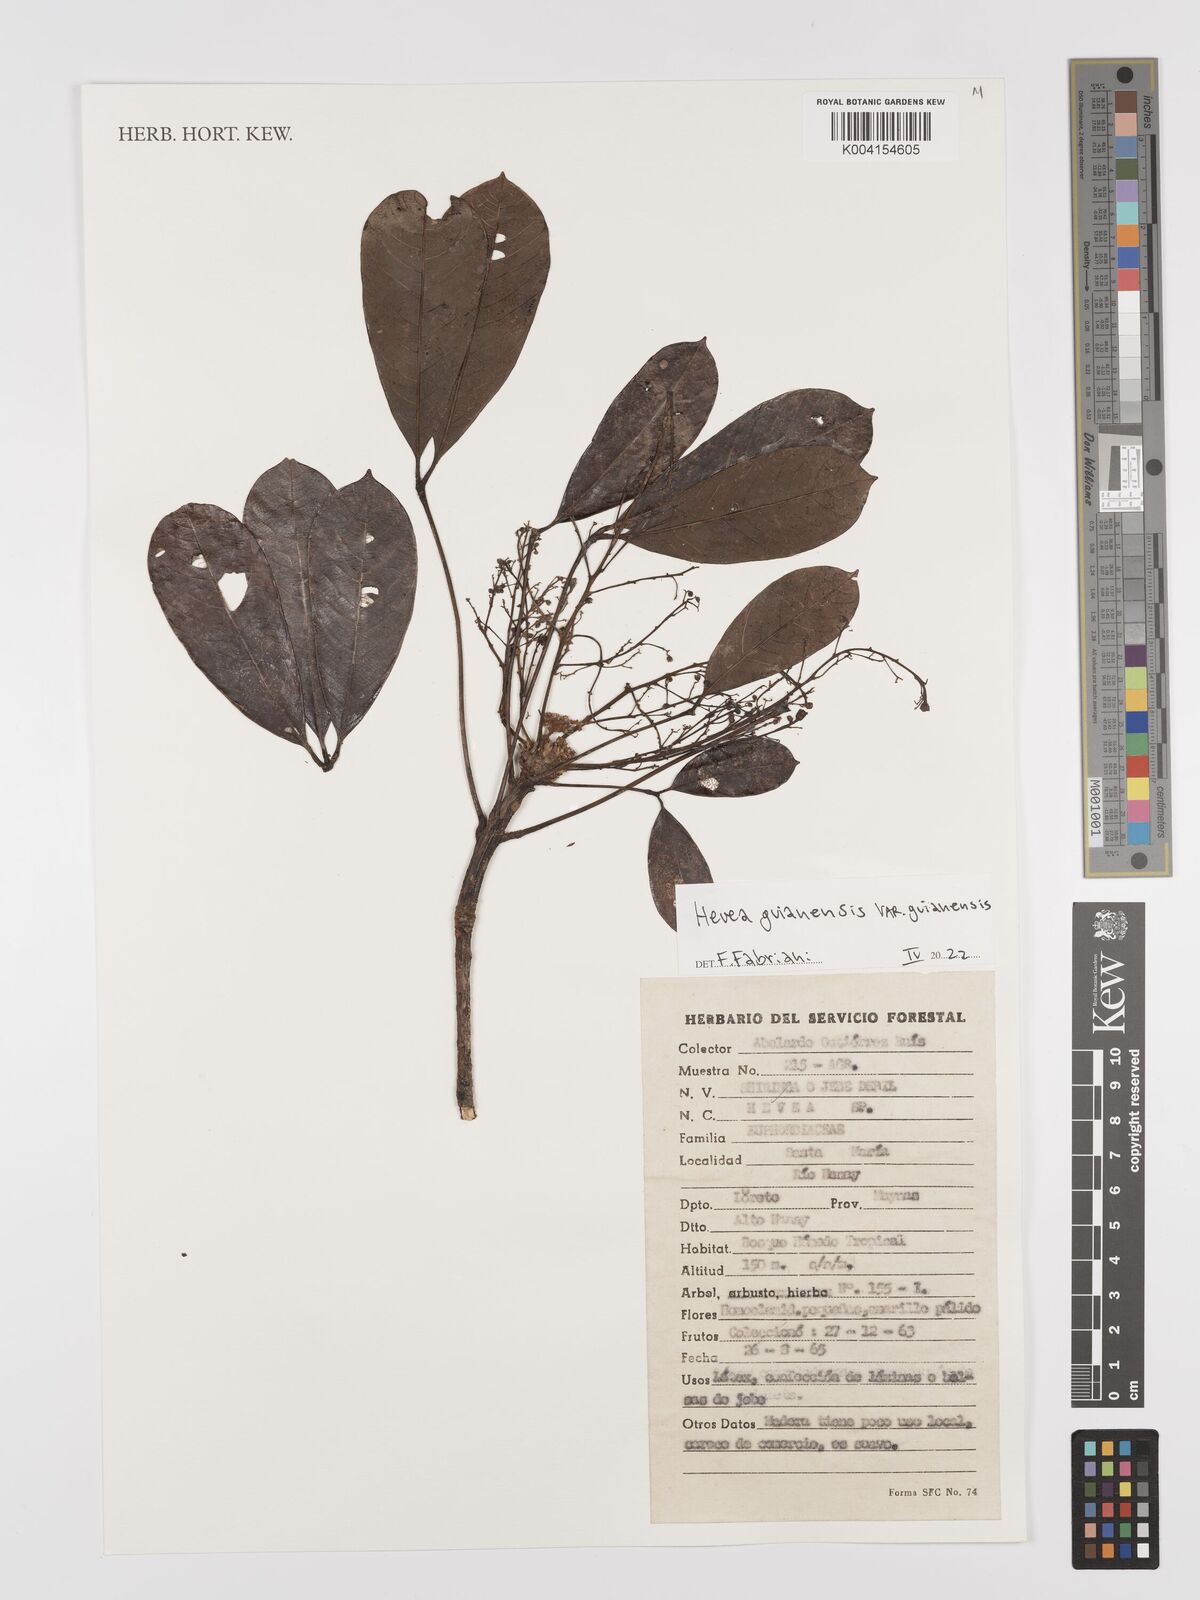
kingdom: Plantae
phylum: Tracheophyta
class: Magnoliopsida
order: Malpighiales
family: Euphorbiaceae
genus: Hevea
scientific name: Hevea guianensis
